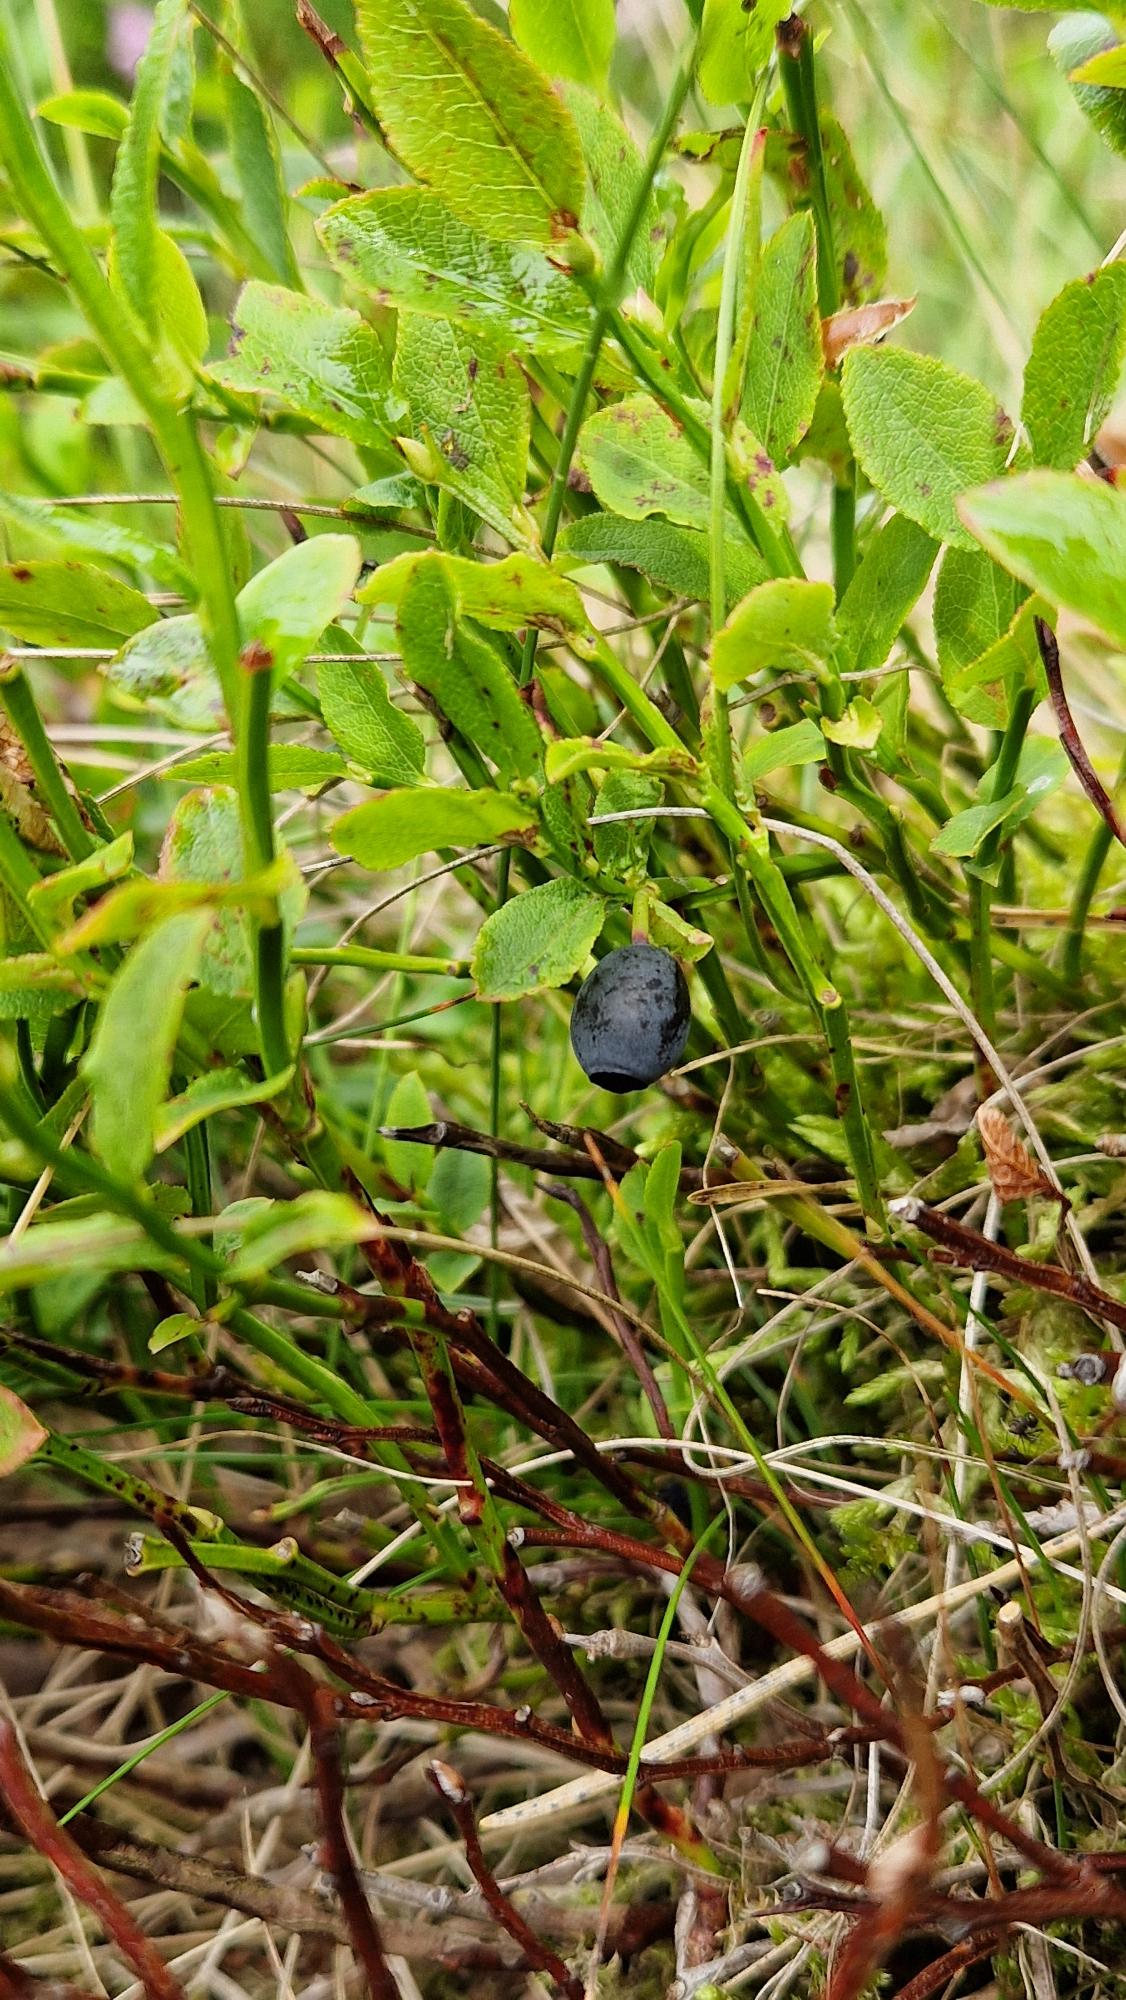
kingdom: Plantae
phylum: Tracheophyta
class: Magnoliopsida
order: Ericales
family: Ericaceae
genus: Vaccinium
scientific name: Vaccinium myrtillus
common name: Blåbær
